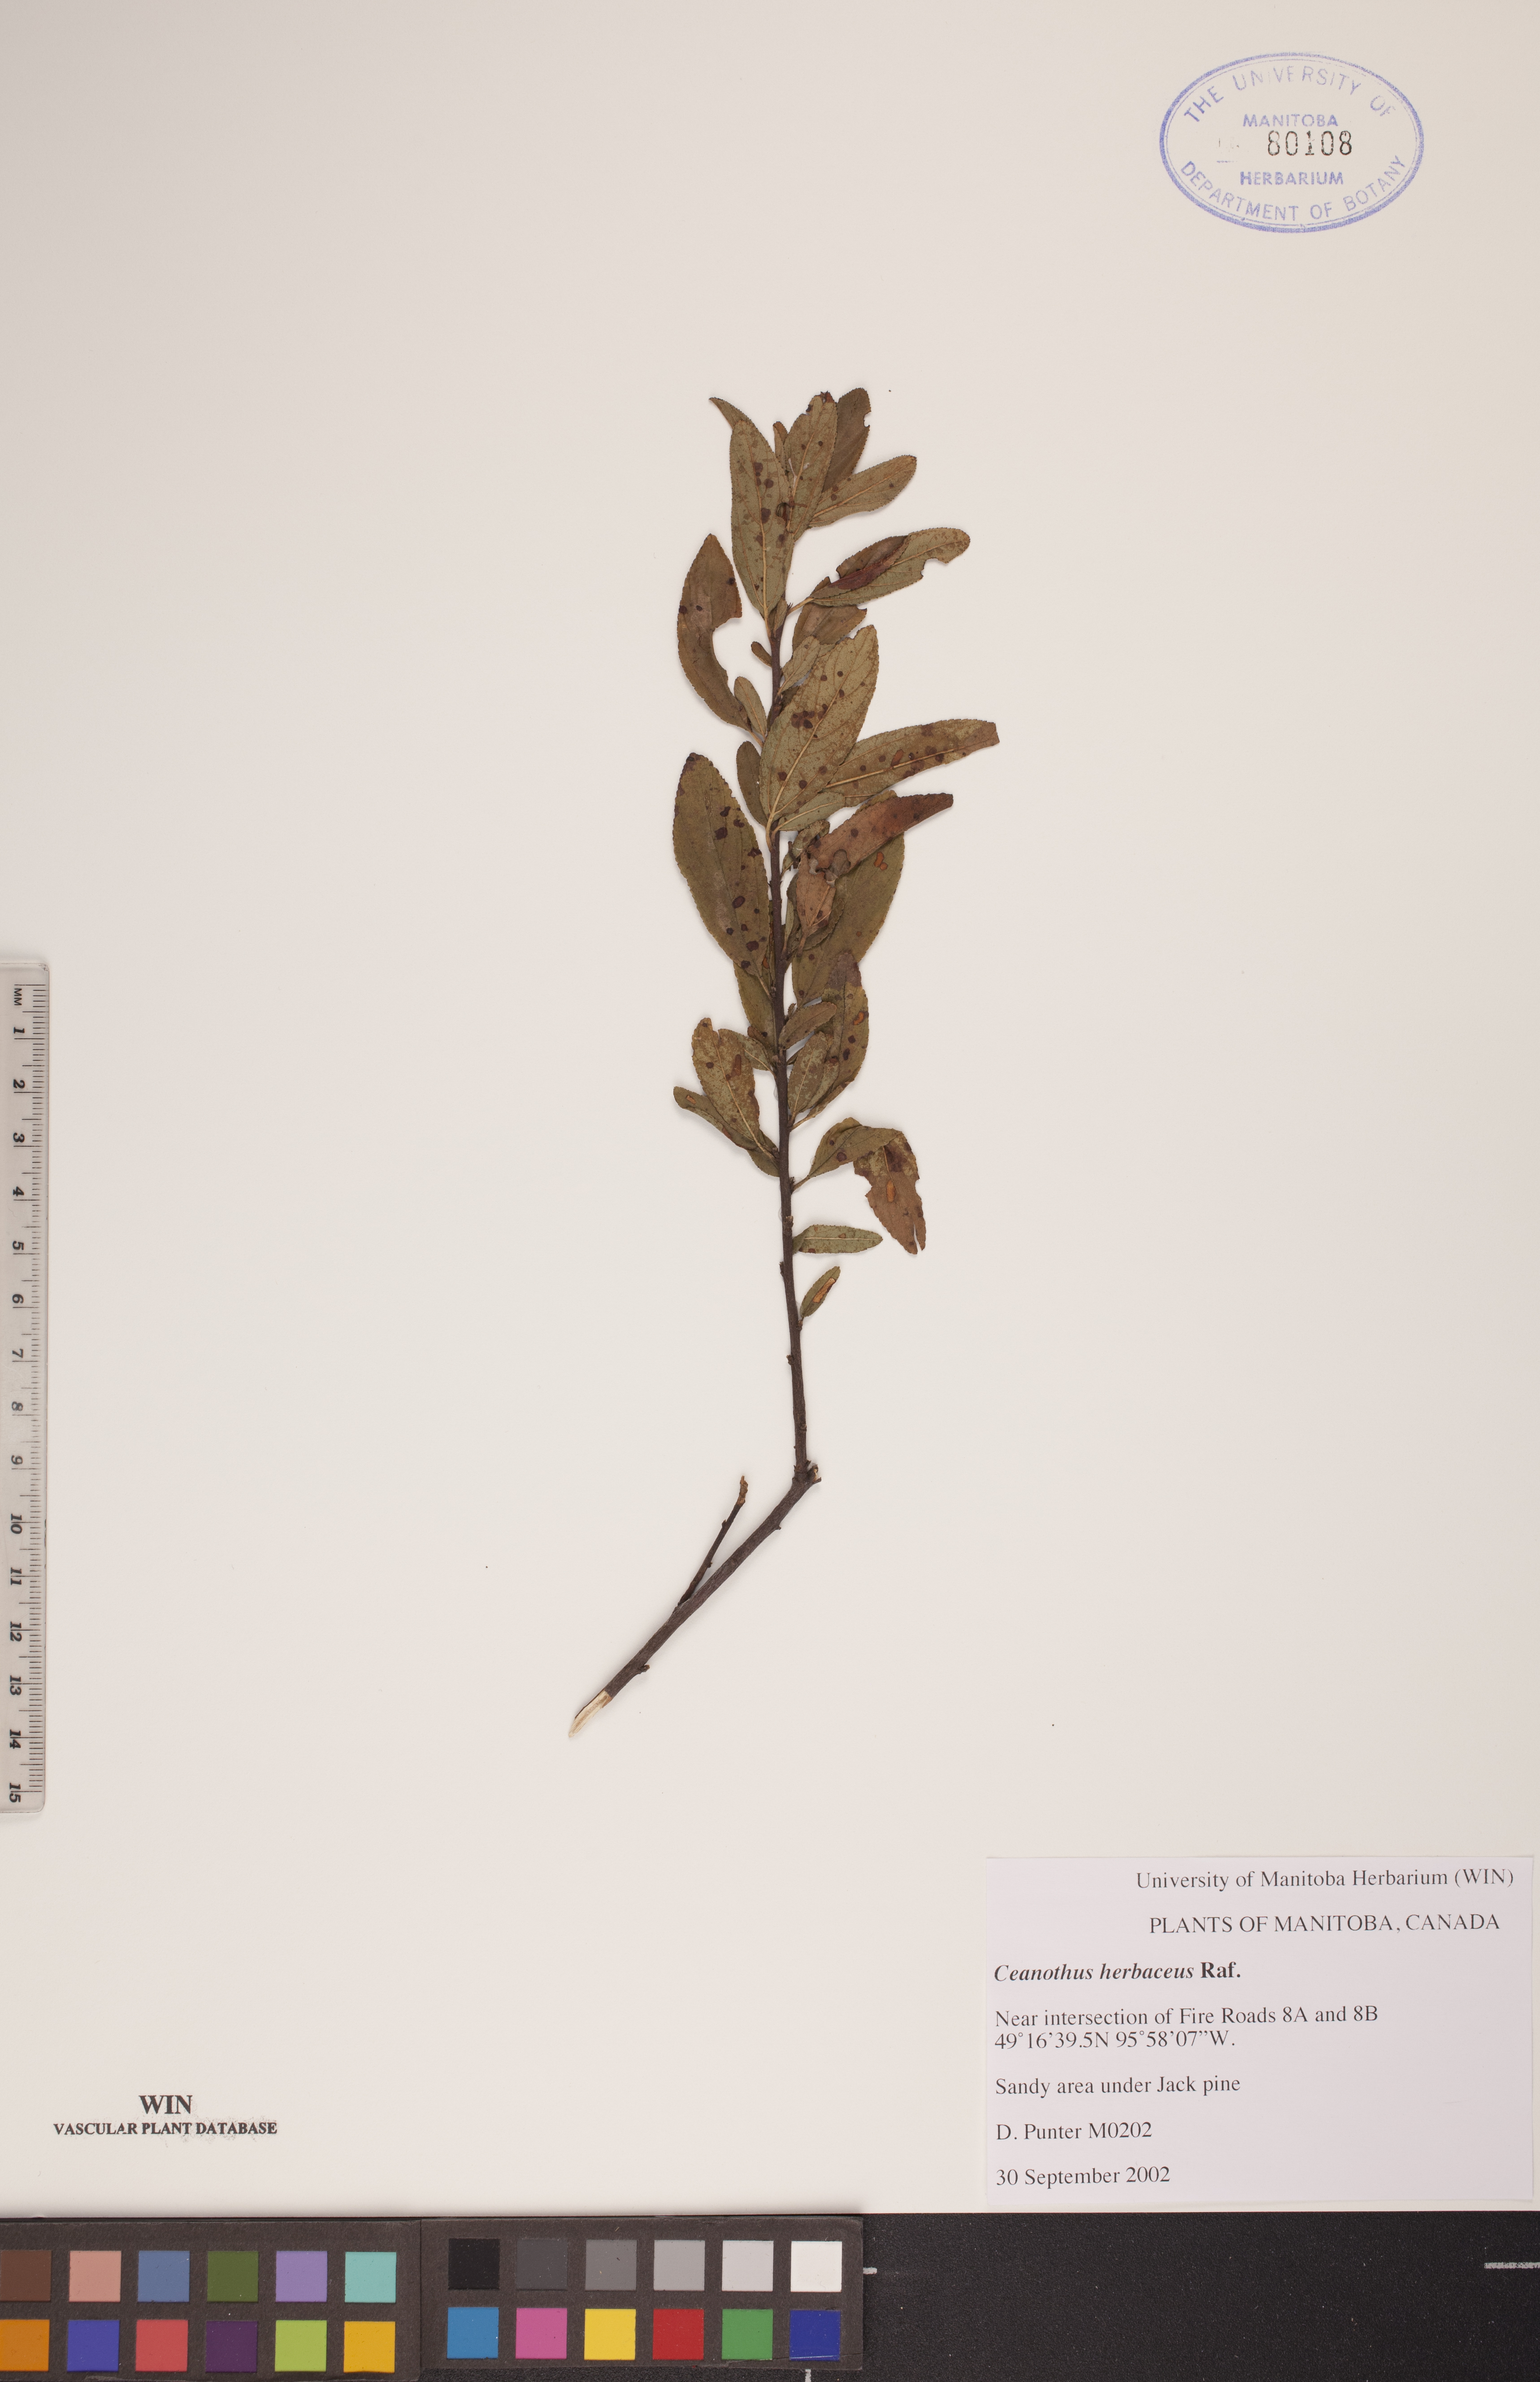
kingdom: Plantae
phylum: Tracheophyta
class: Magnoliopsida
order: Rosales
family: Rhamnaceae
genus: Ceanothus
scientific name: Ceanothus herbaceus
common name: Inland ceanothus
